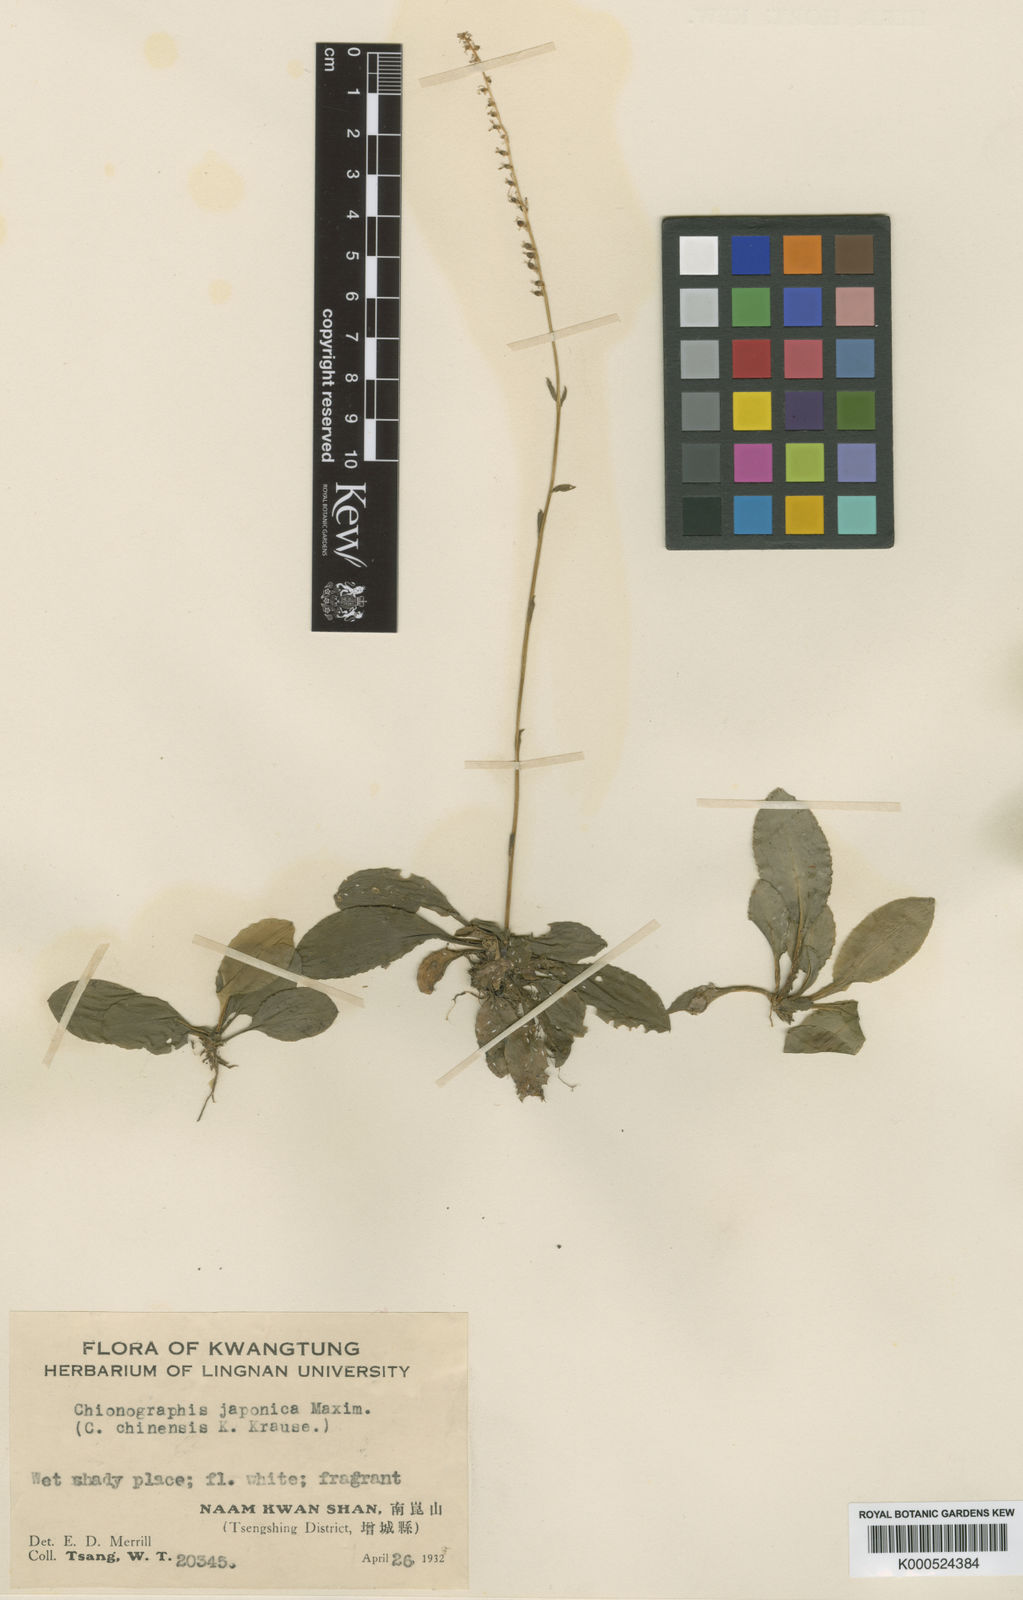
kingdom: Plantae
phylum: Tracheophyta
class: Liliopsida
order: Liliales
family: Melanthiaceae
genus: Chamaelirium
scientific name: Chamaelirium chinense
